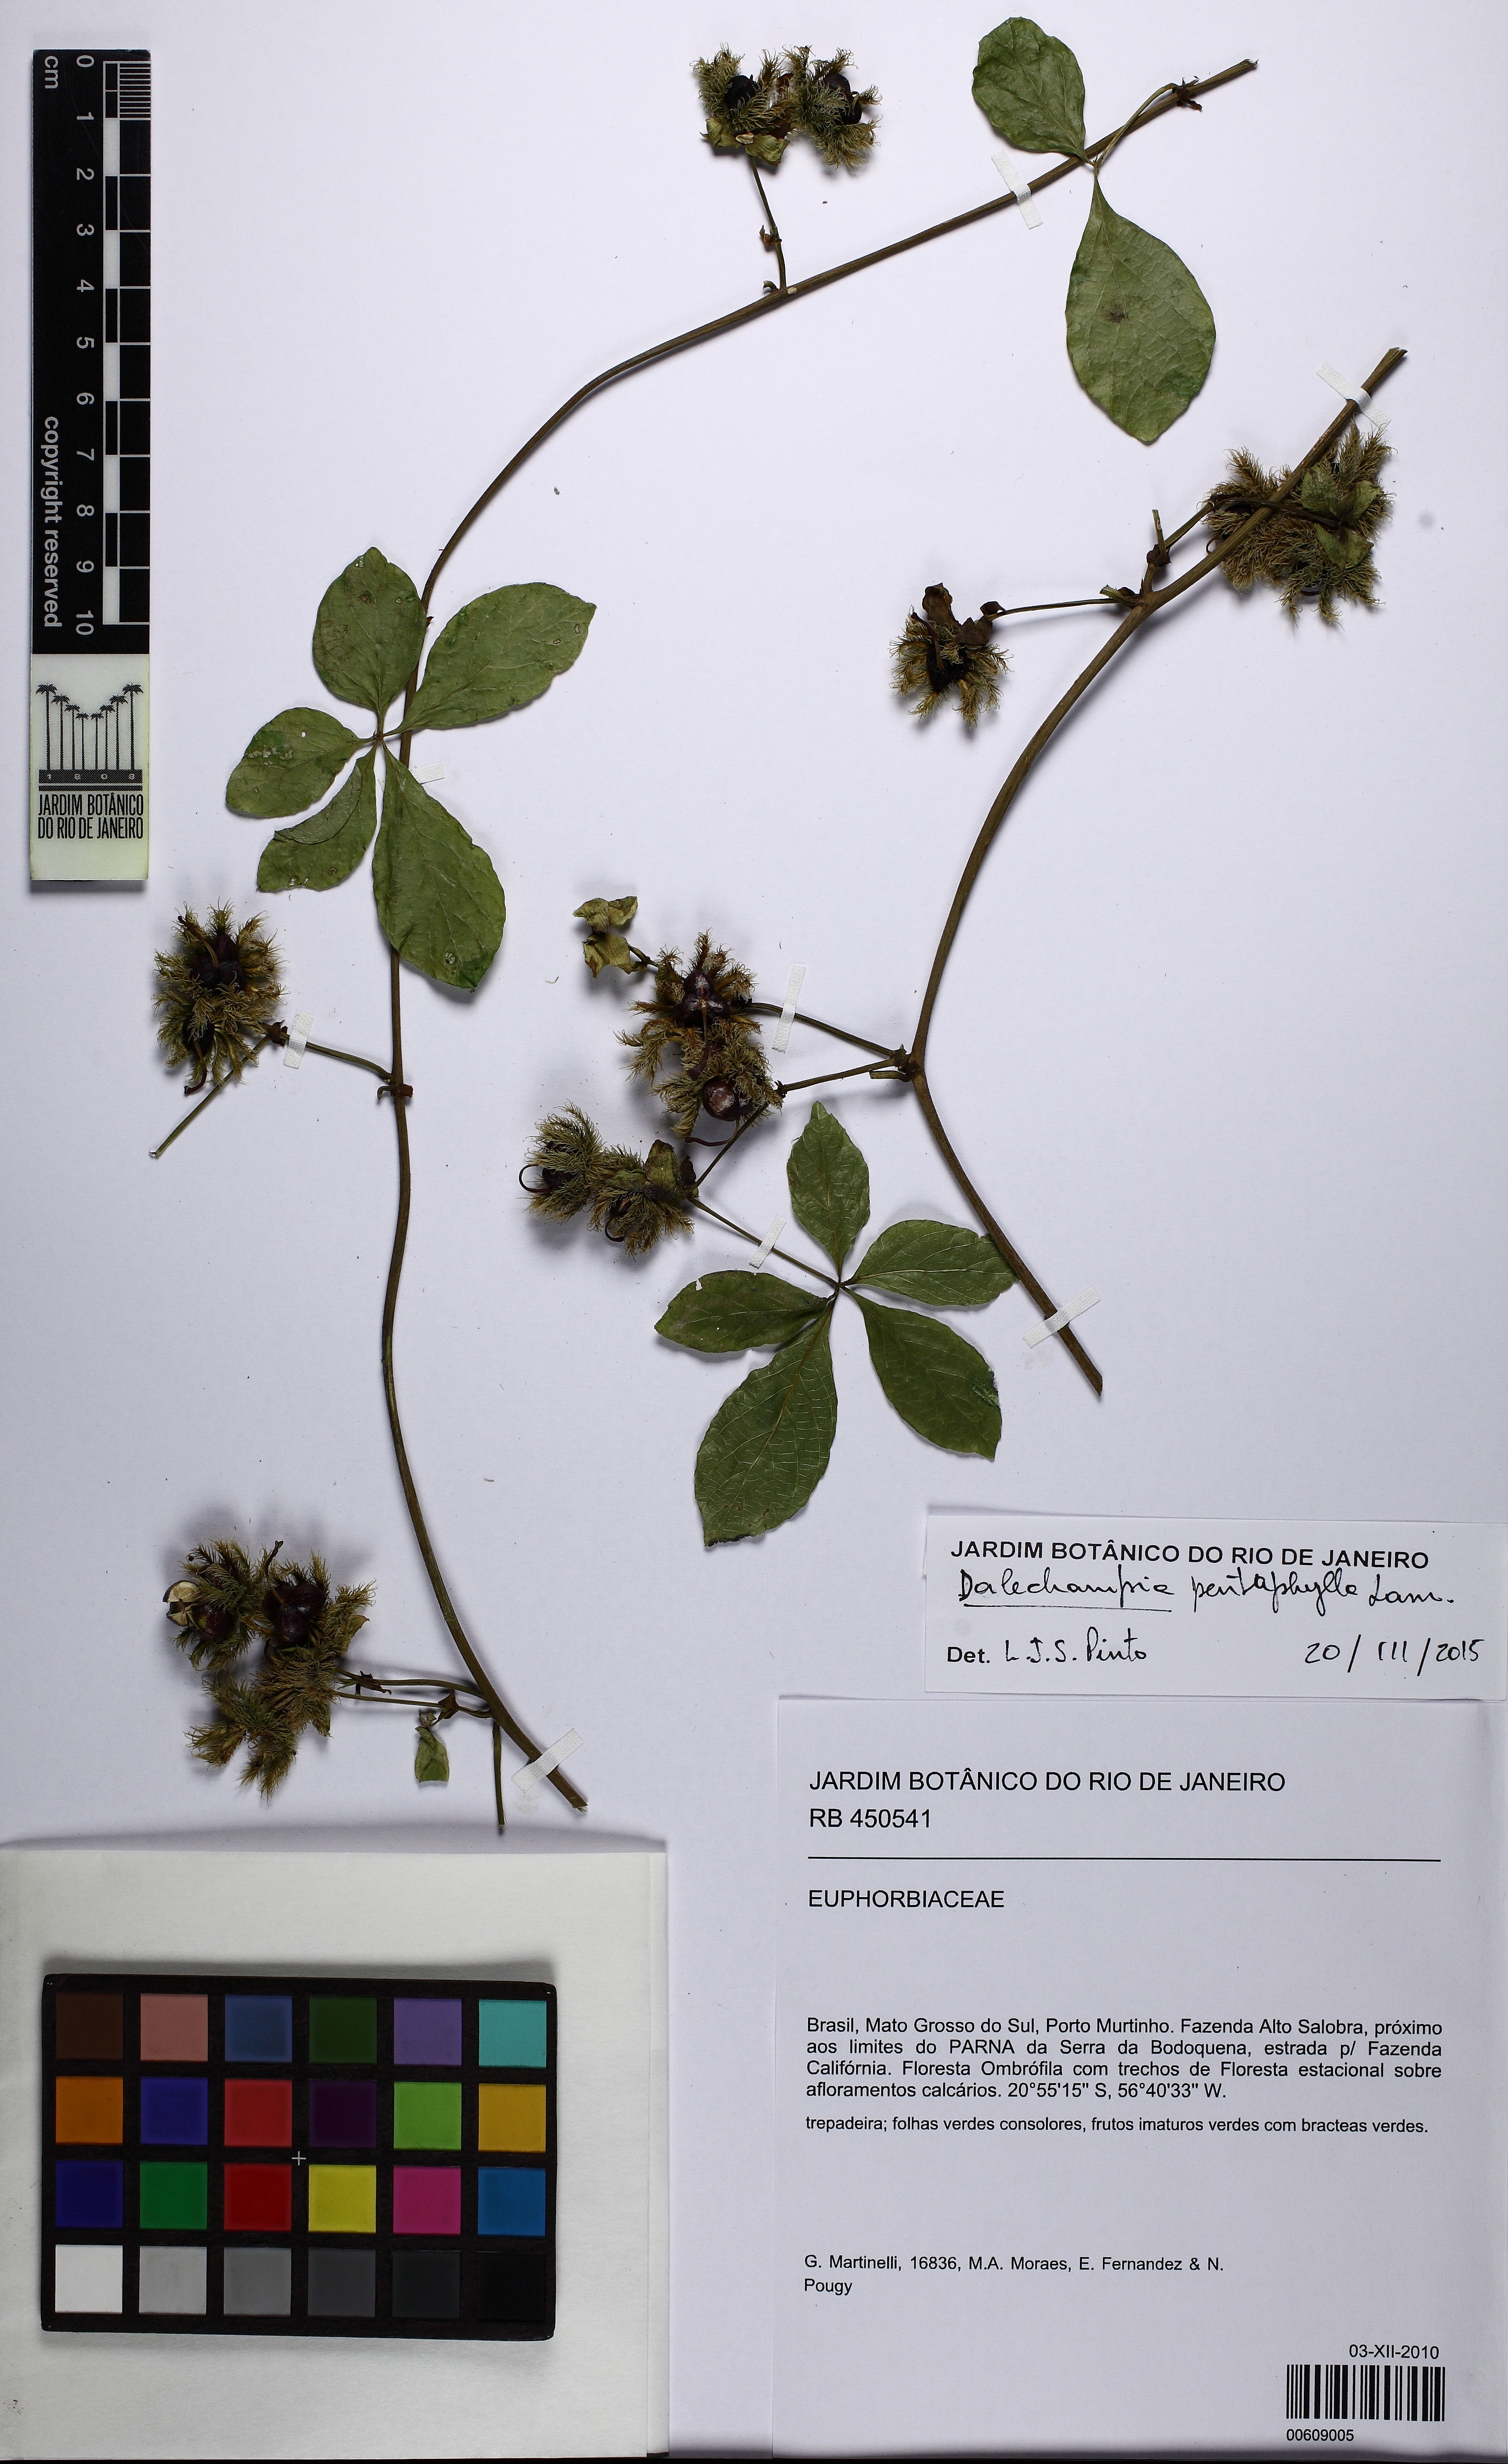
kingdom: Plantae
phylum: Tracheophyta
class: Magnoliopsida
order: Malpighiales
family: Euphorbiaceae
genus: Dalechampia
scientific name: Dalechampia pentaphylla
